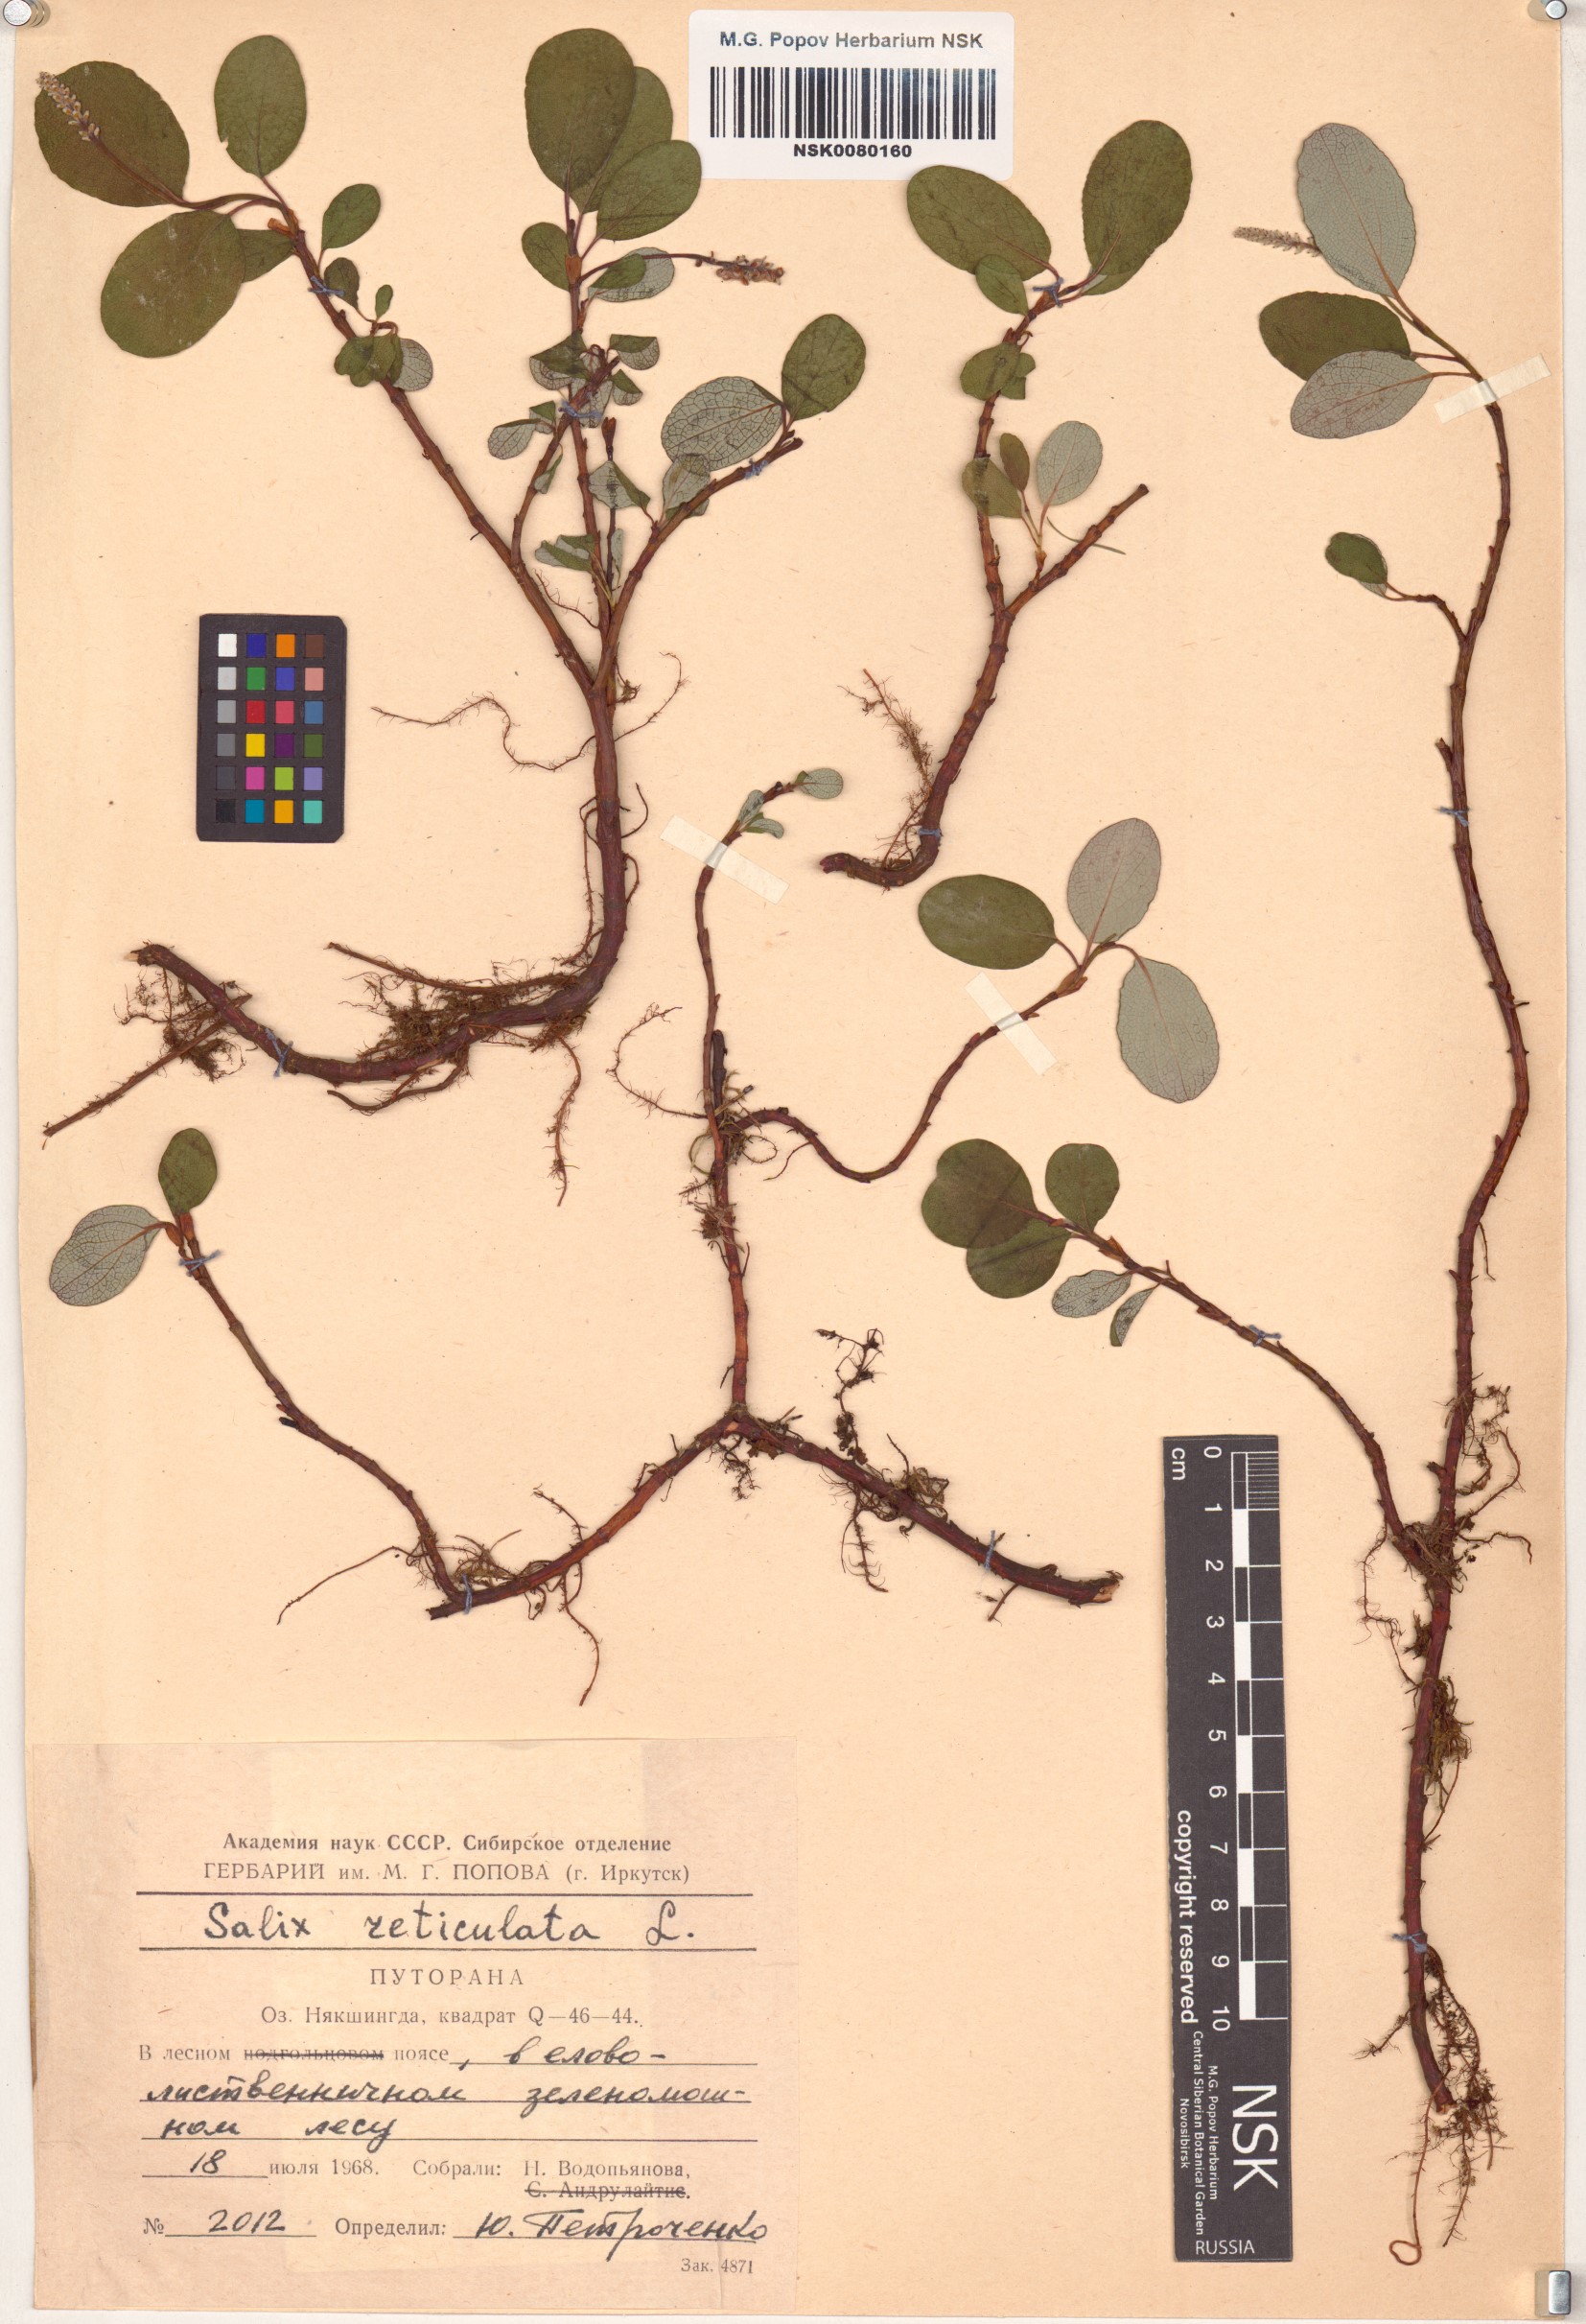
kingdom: Plantae
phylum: Tracheophyta
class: Magnoliopsida
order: Malpighiales
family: Salicaceae
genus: Salix
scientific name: Salix reticulata
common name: Net-leaved willow
